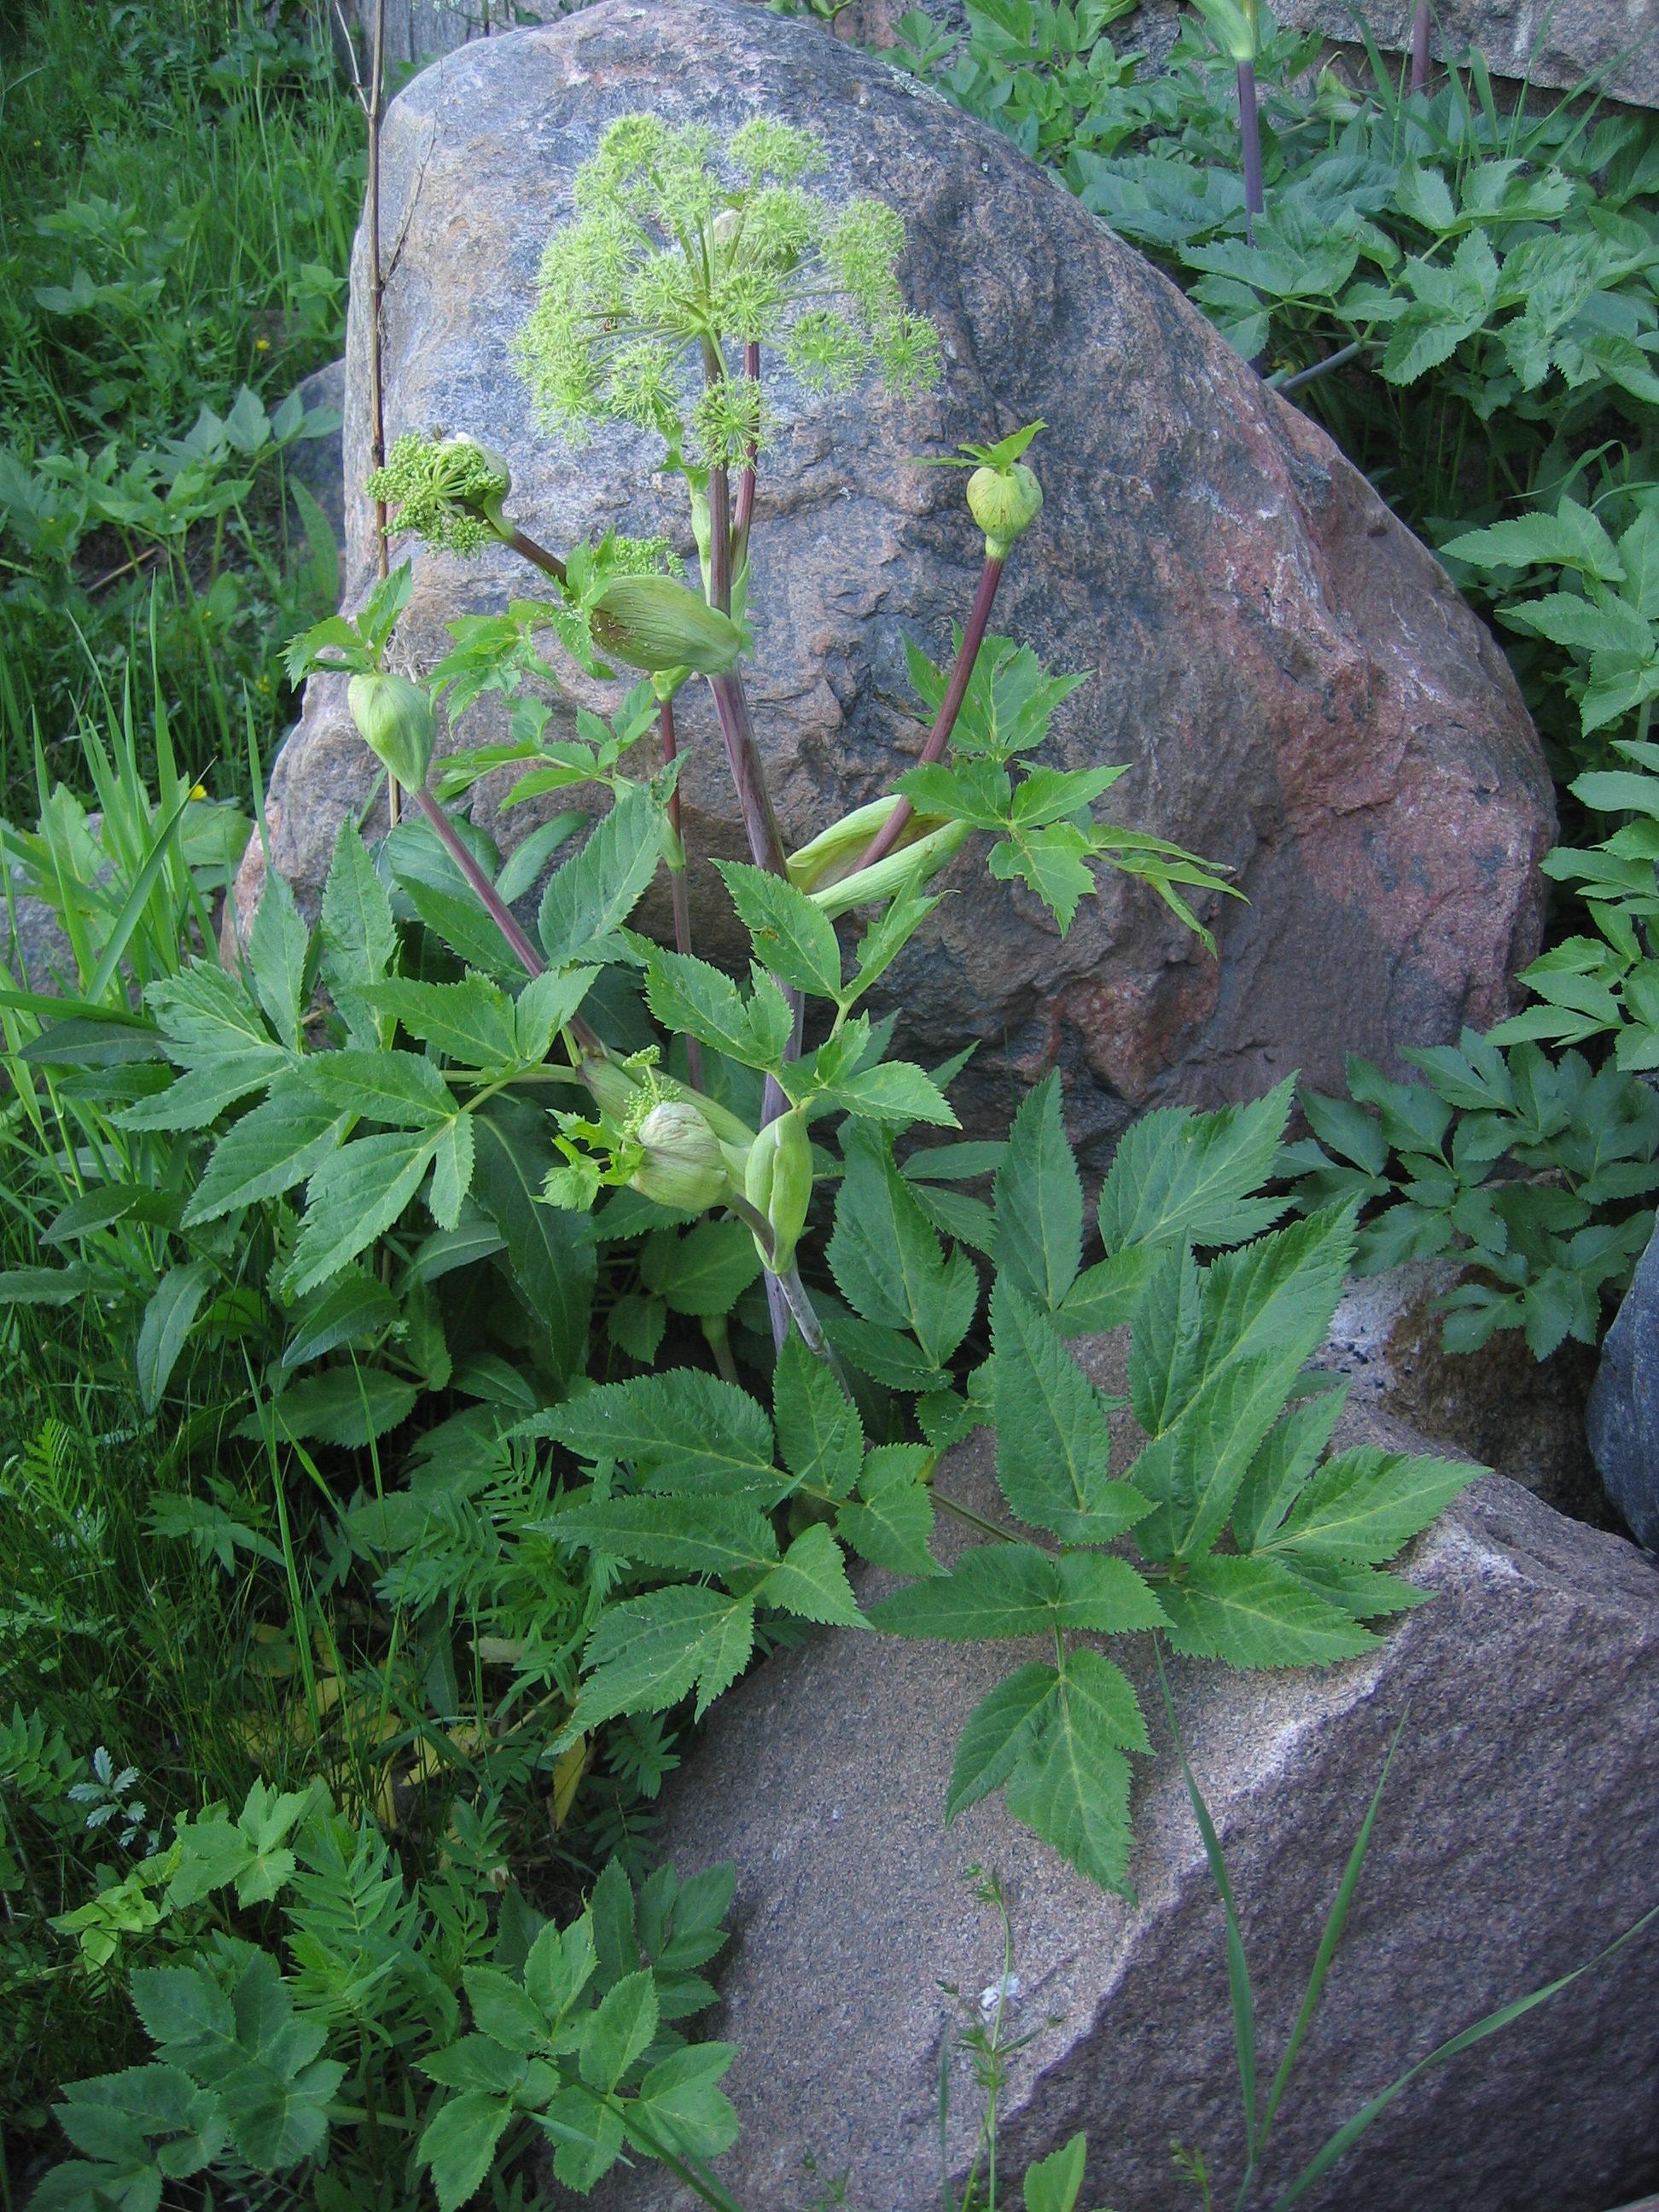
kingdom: Plantae
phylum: Tracheophyta
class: Magnoliopsida
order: Apiales
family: Apiaceae
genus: Angelica
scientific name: Angelica archangelica
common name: Garden angelica
